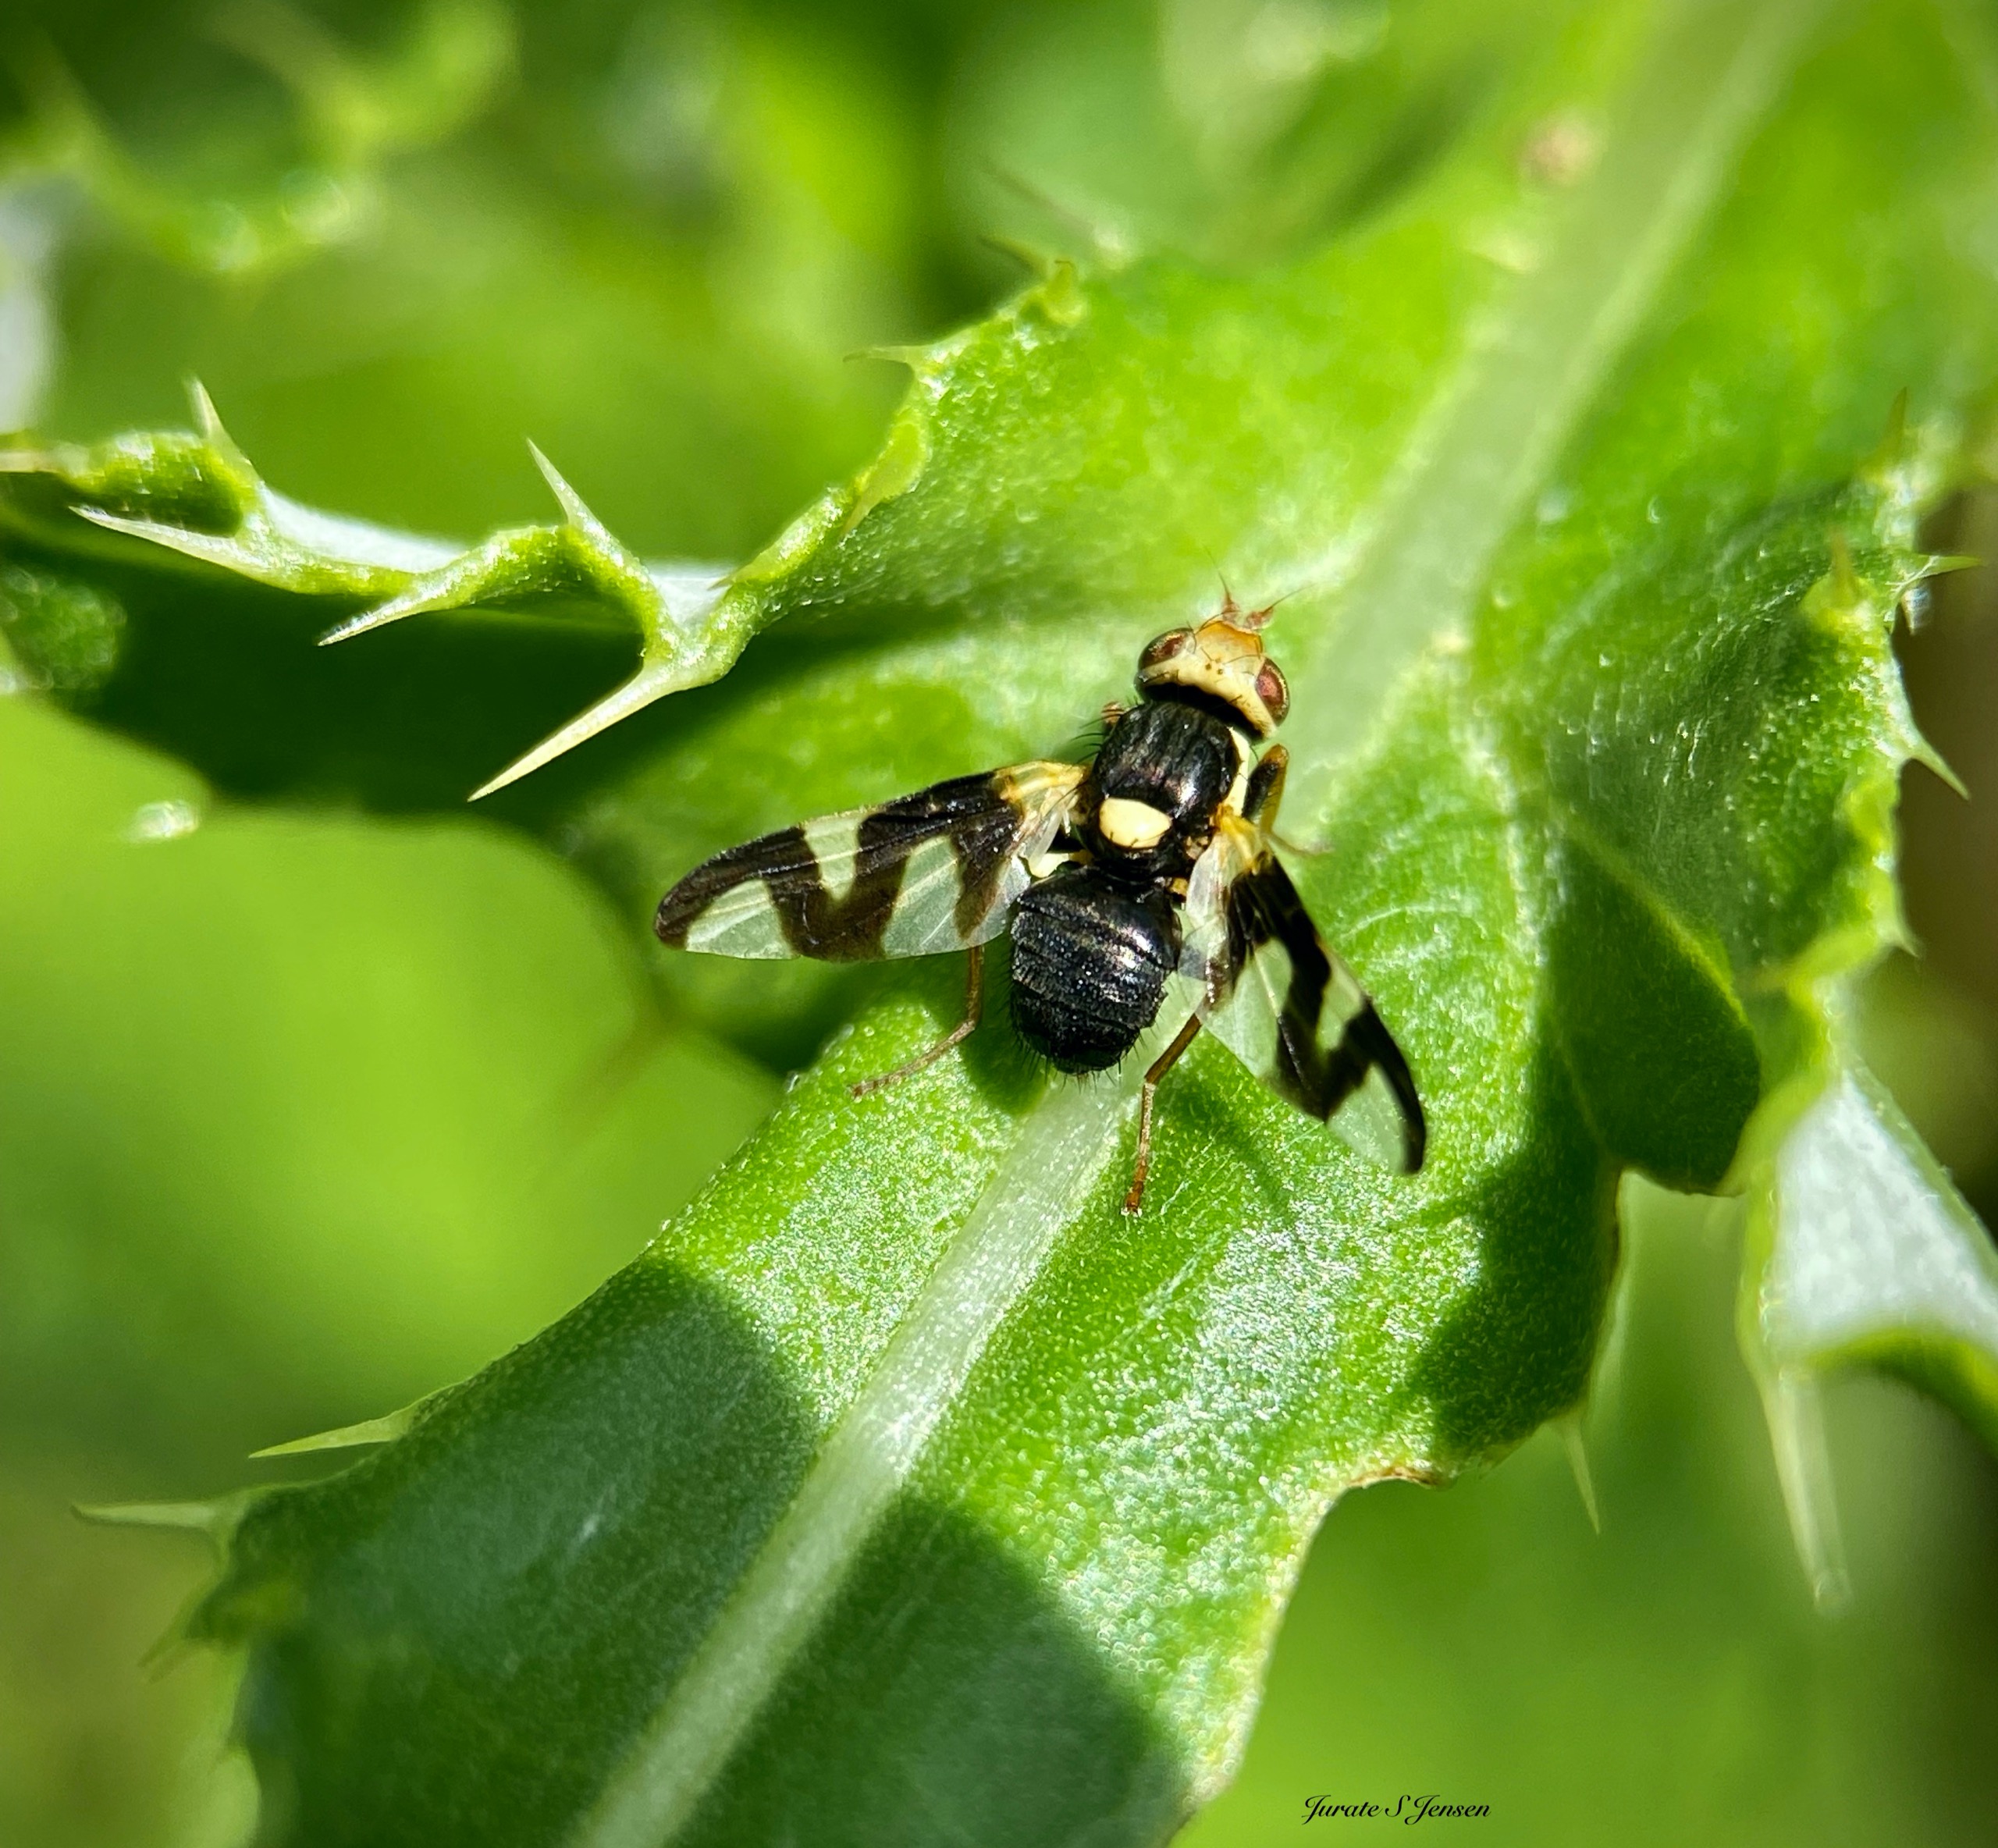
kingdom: Animalia
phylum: Arthropoda
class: Insecta
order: Diptera
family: Tephritidae
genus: Urophora
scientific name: Urophora cardui
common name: Tidselbåndflue
